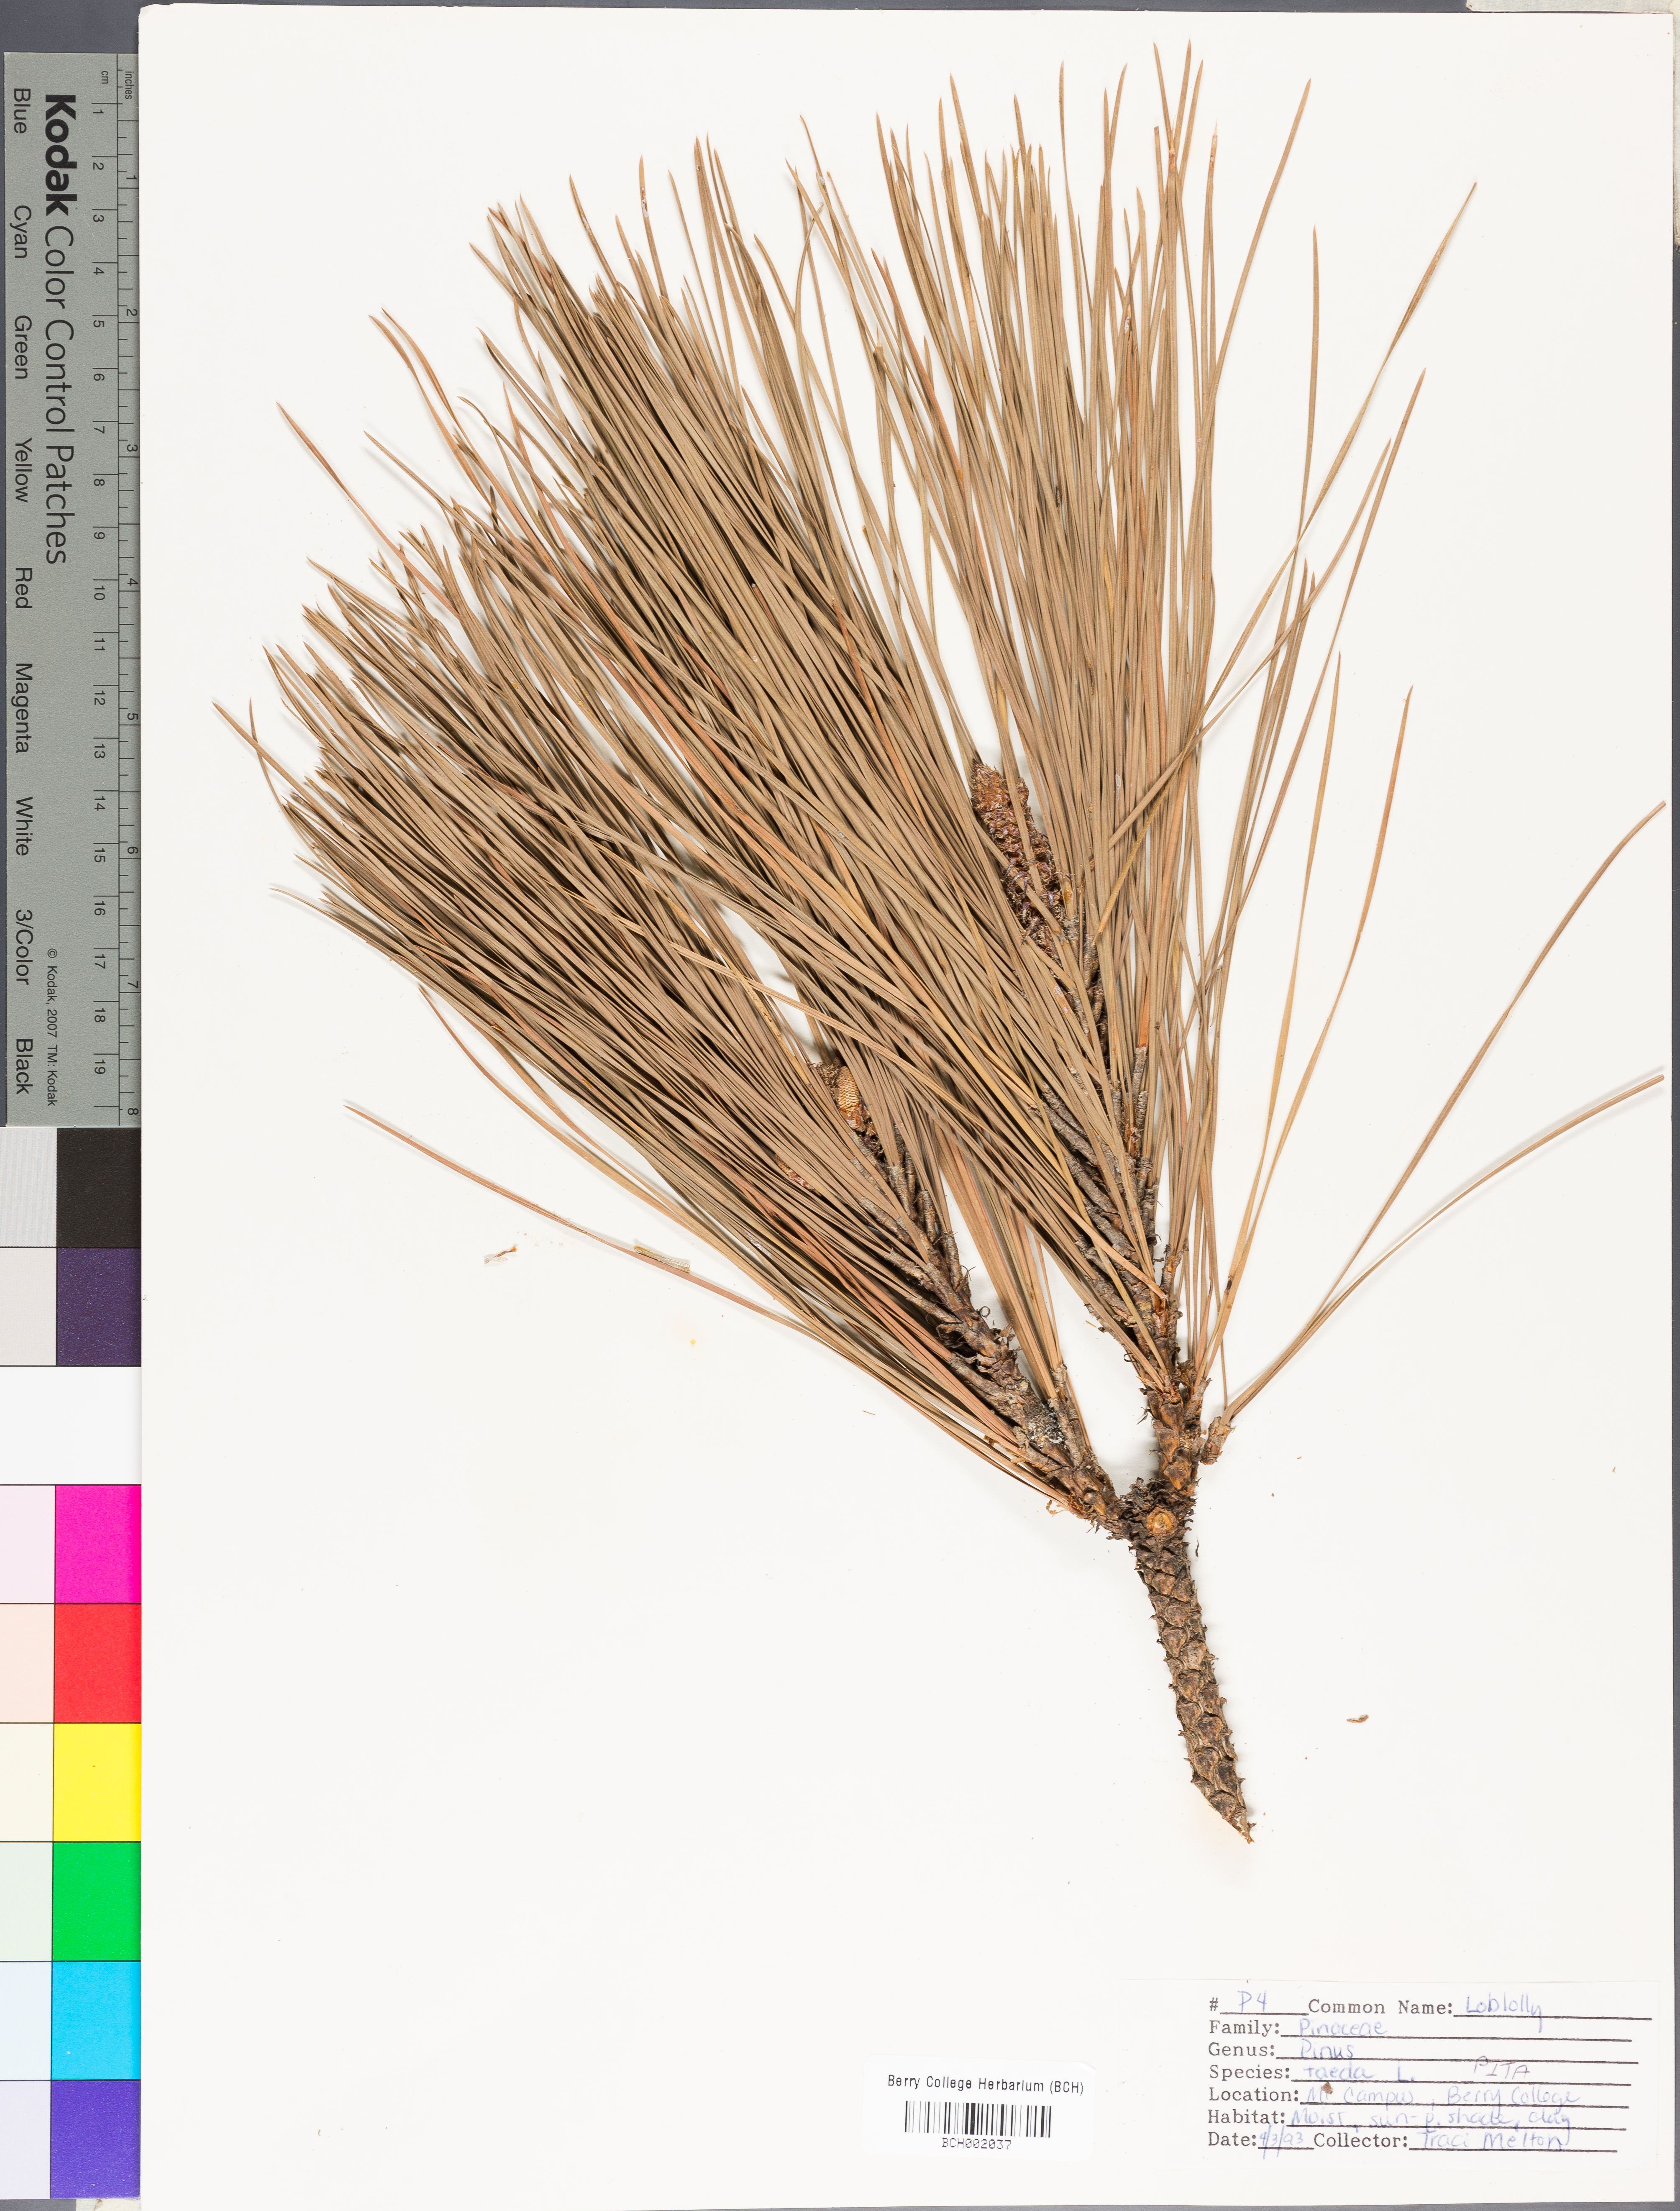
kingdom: Plantae
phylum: Tracheophyta
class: Pinopsida
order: Pinales
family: Pinaceae
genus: Pinus
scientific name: Pinus taeda
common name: Loblolly pine
